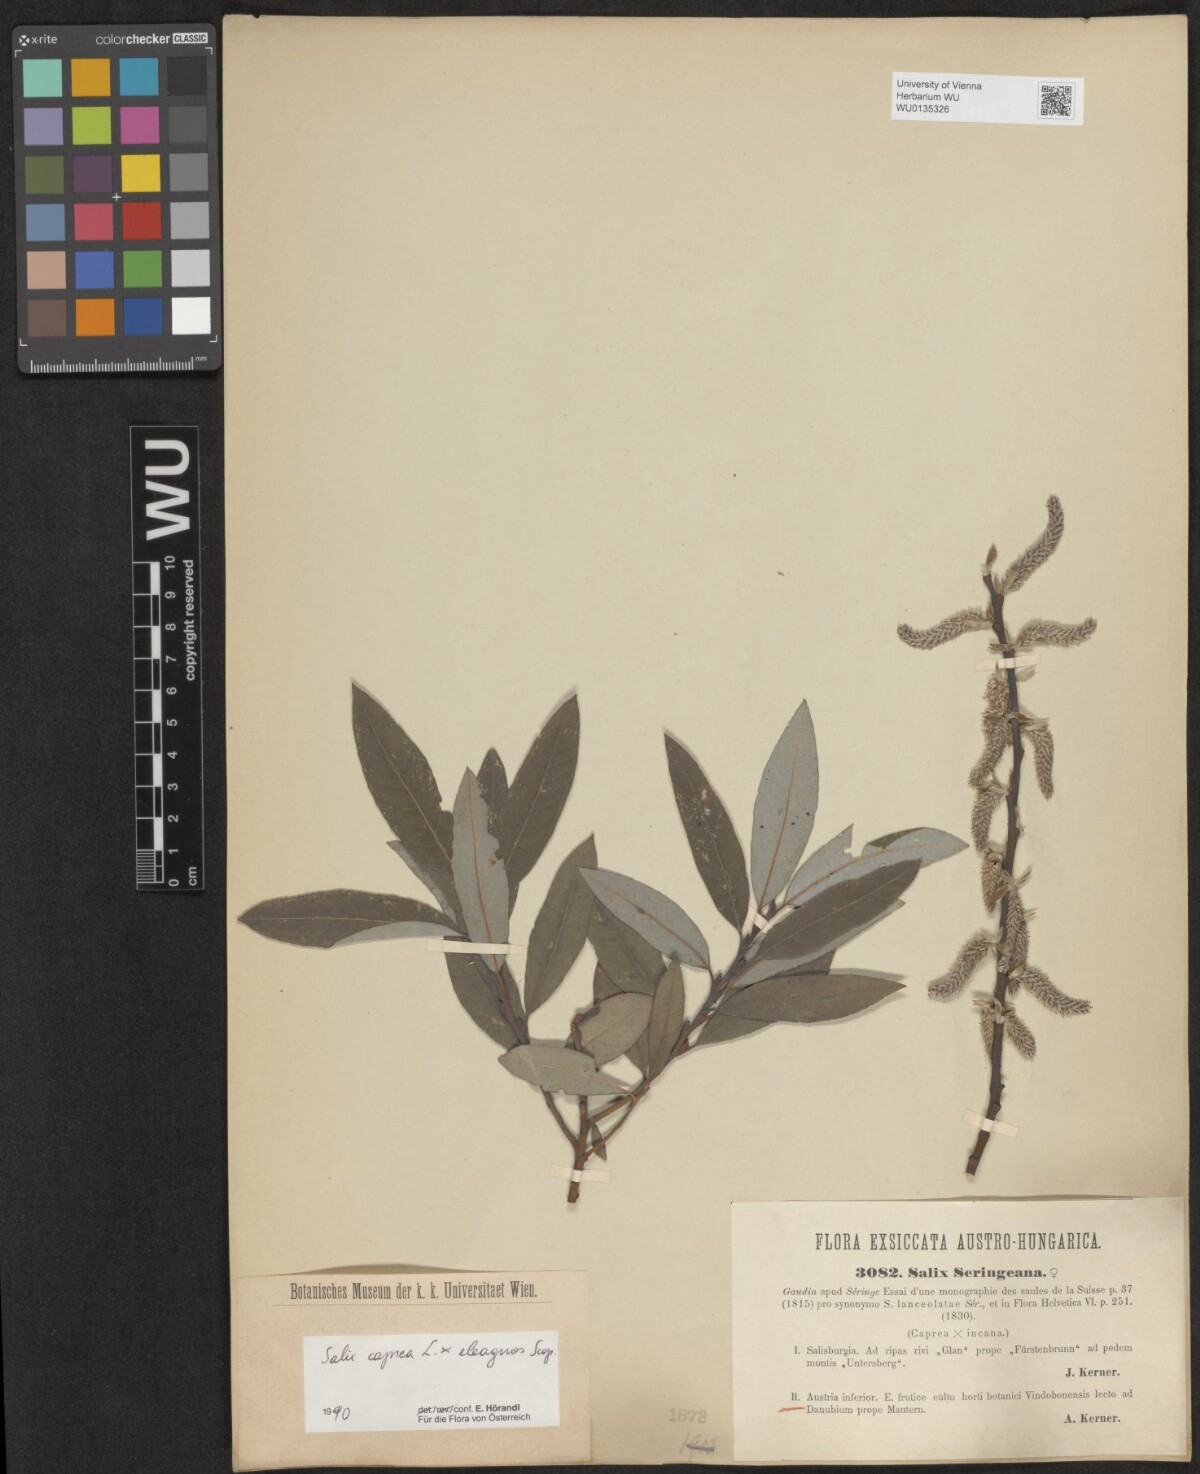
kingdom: Plantae
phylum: Tracheophyta
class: Magnoliopsida
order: Malpighiales
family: Salicaceae
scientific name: Salicaceae
